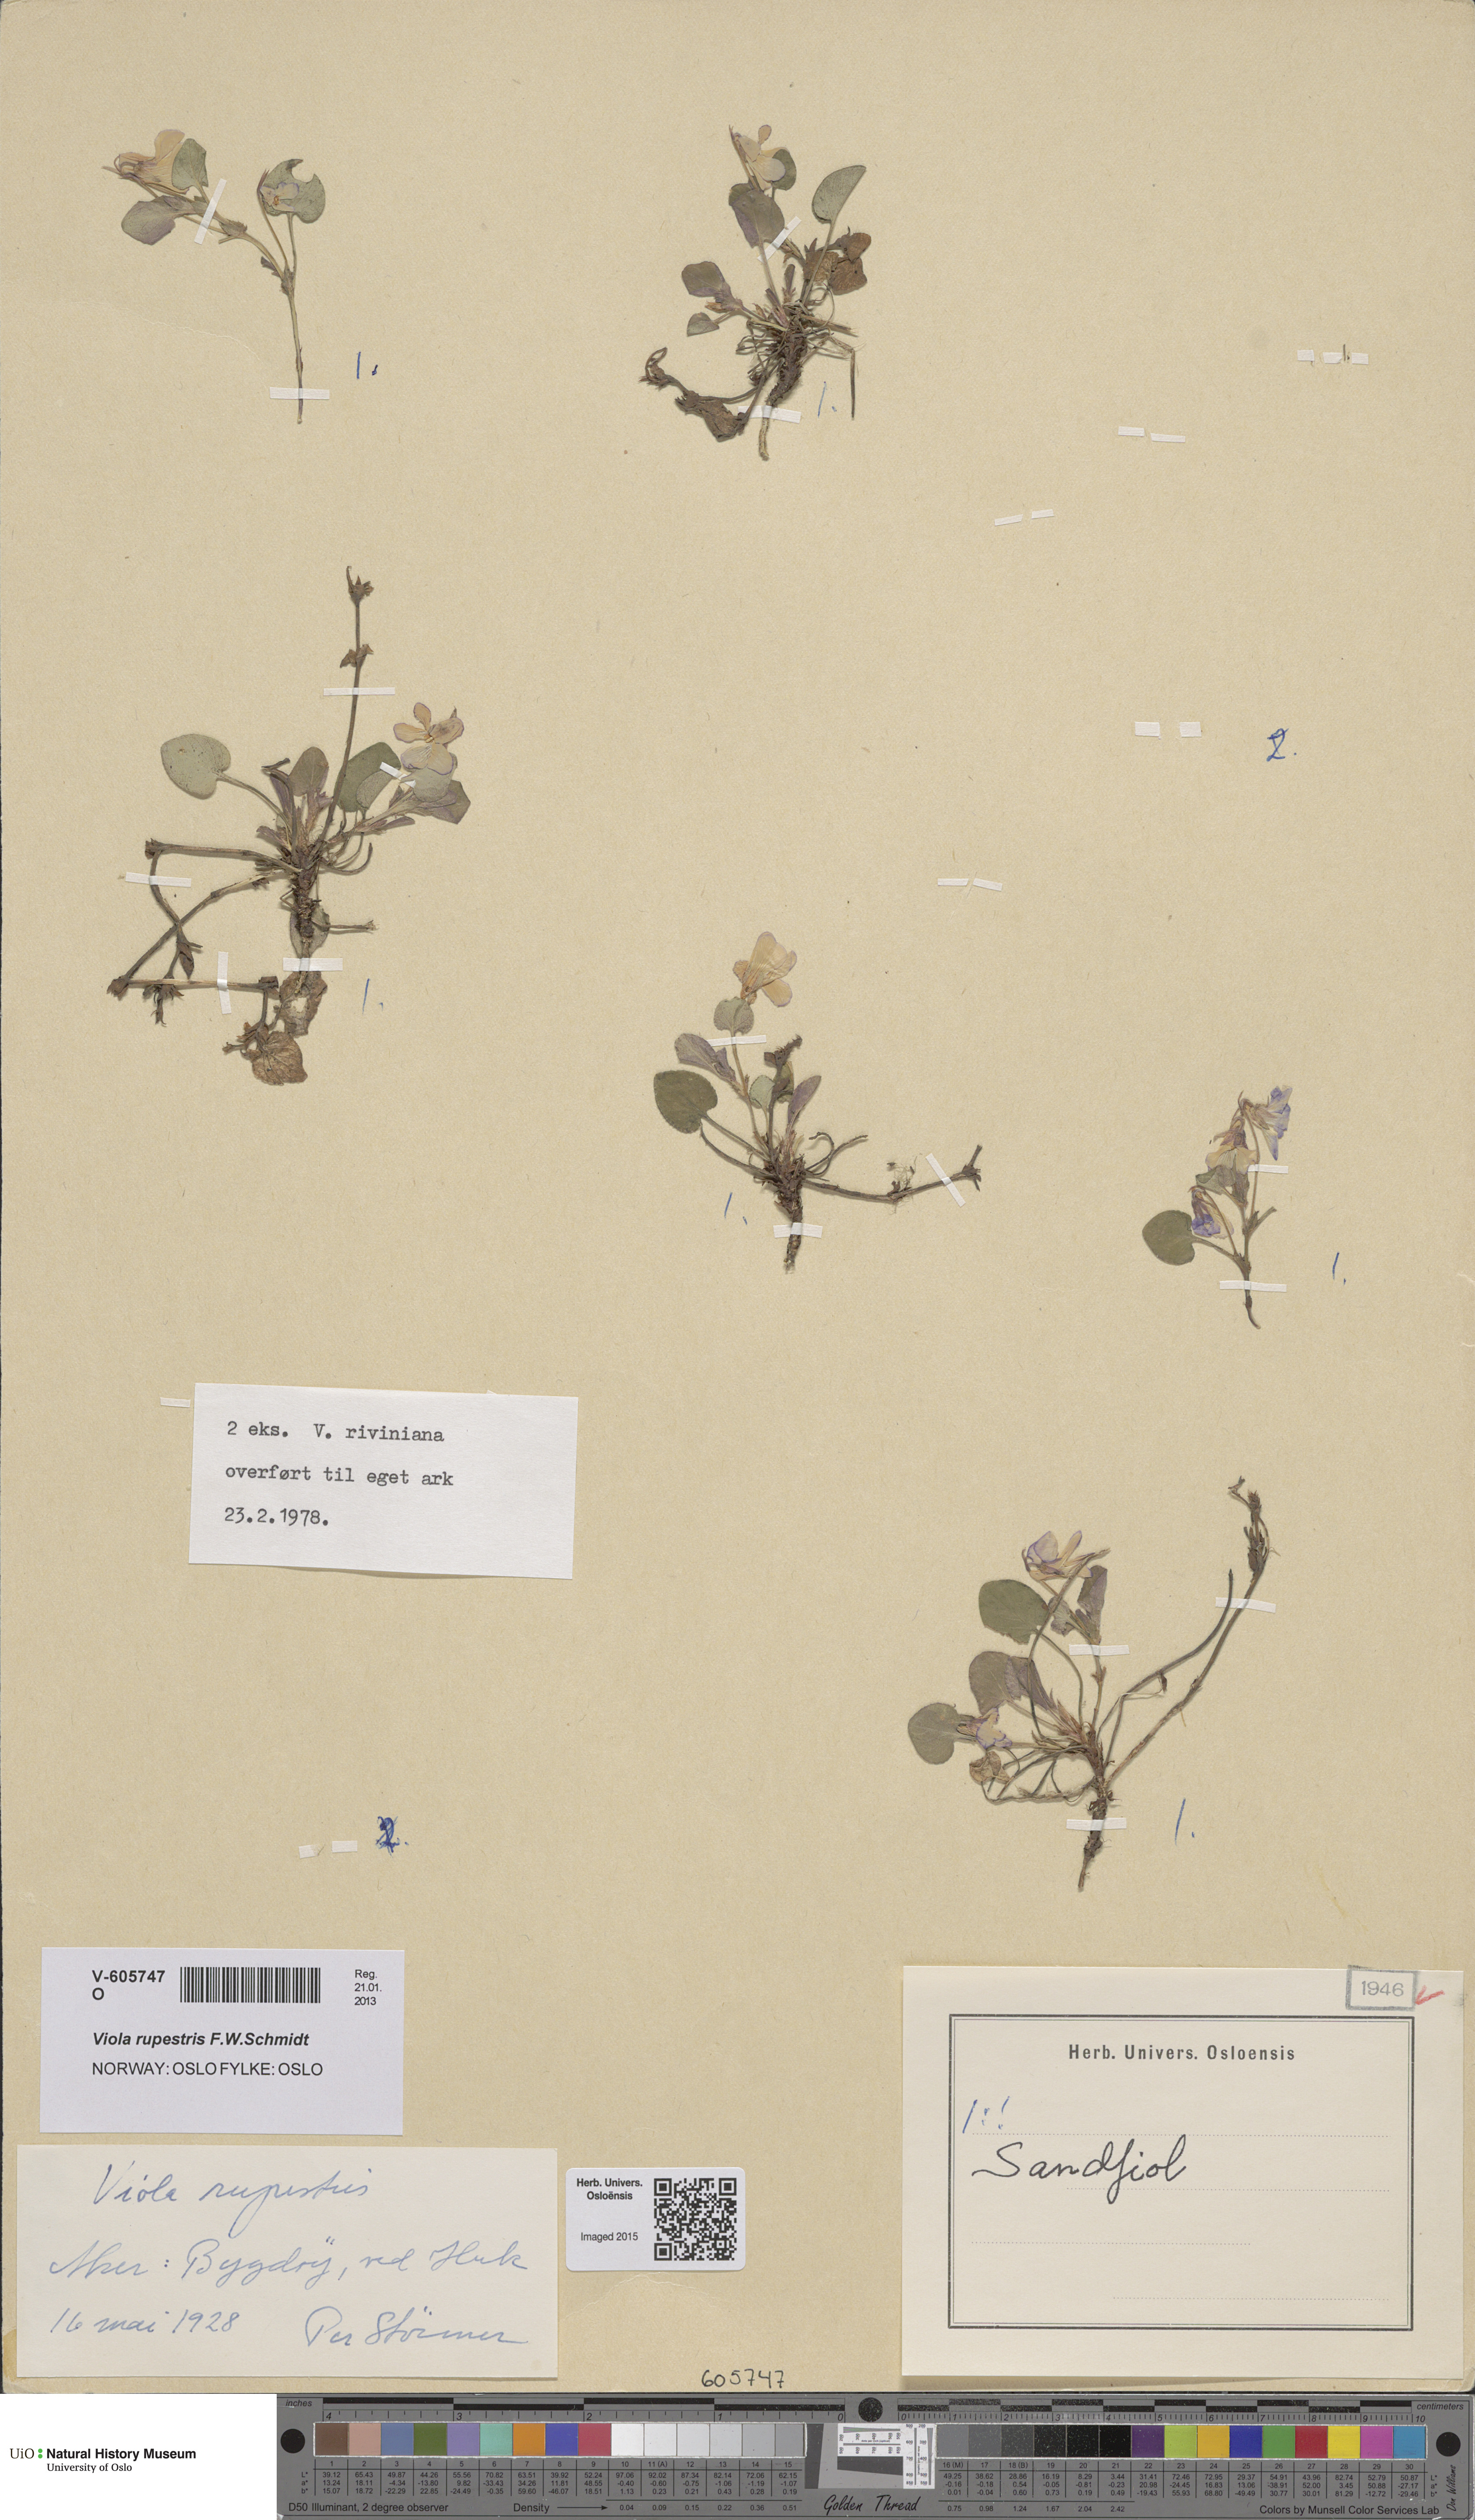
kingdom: Plantae
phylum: Tracheophyta
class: Magnoliopsida
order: Malpighiales
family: Violaceae
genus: Viola
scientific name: Viola rupestris
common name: Teesdale violet
